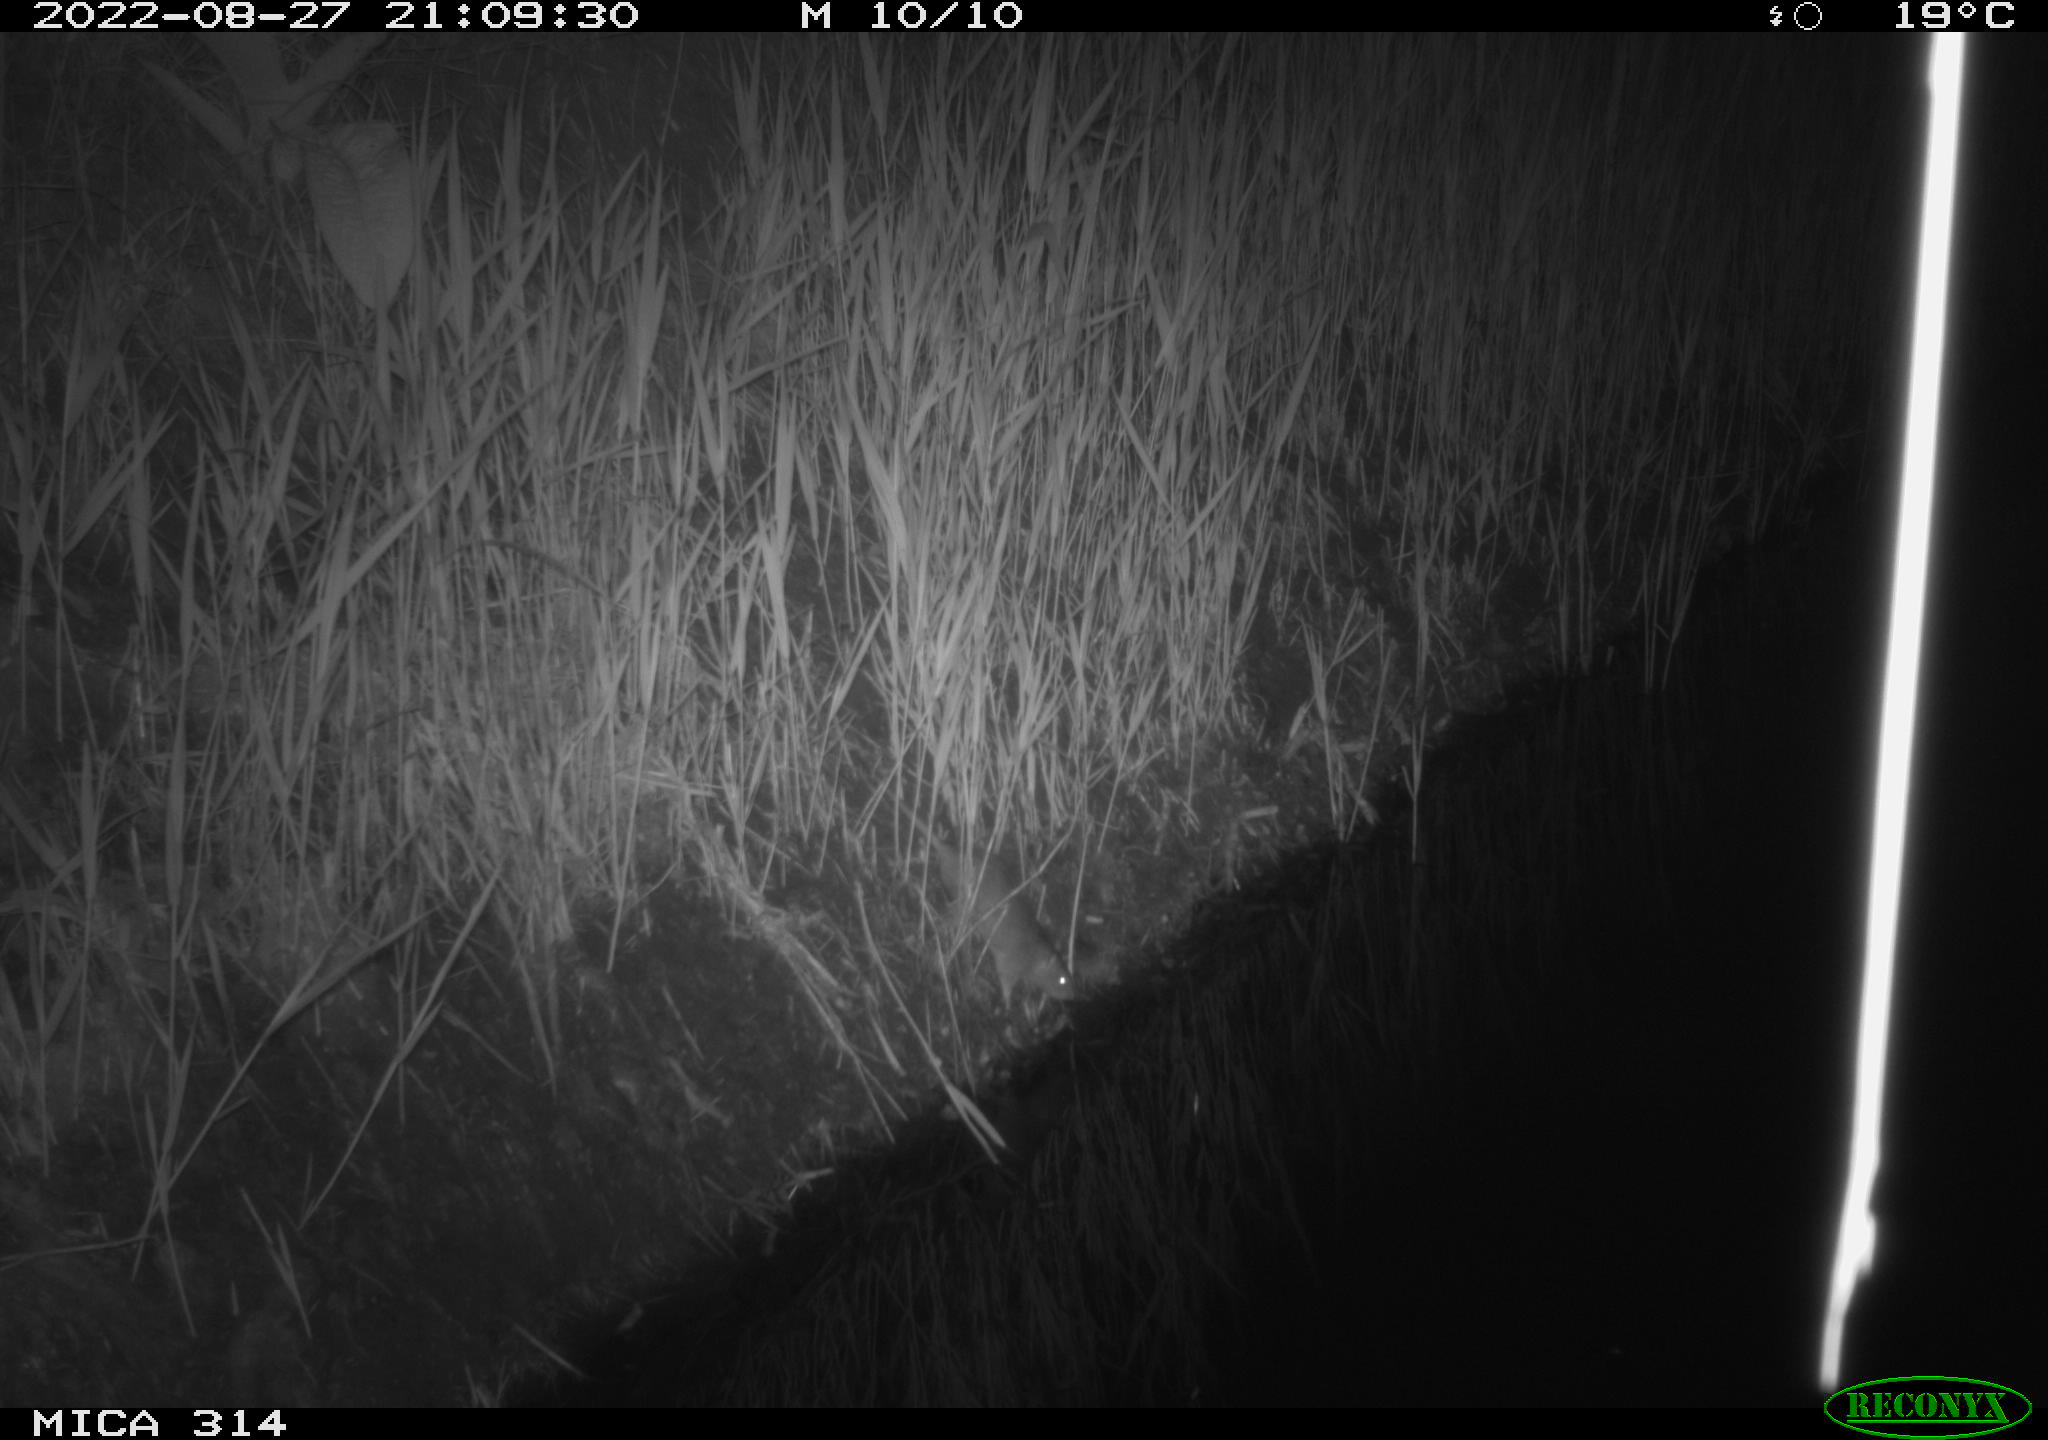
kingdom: Animalia
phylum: Chordata
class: Mammalia
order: Rodentia
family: Muridae
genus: Rattus
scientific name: Rattus norvegicus
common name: Brown rat
